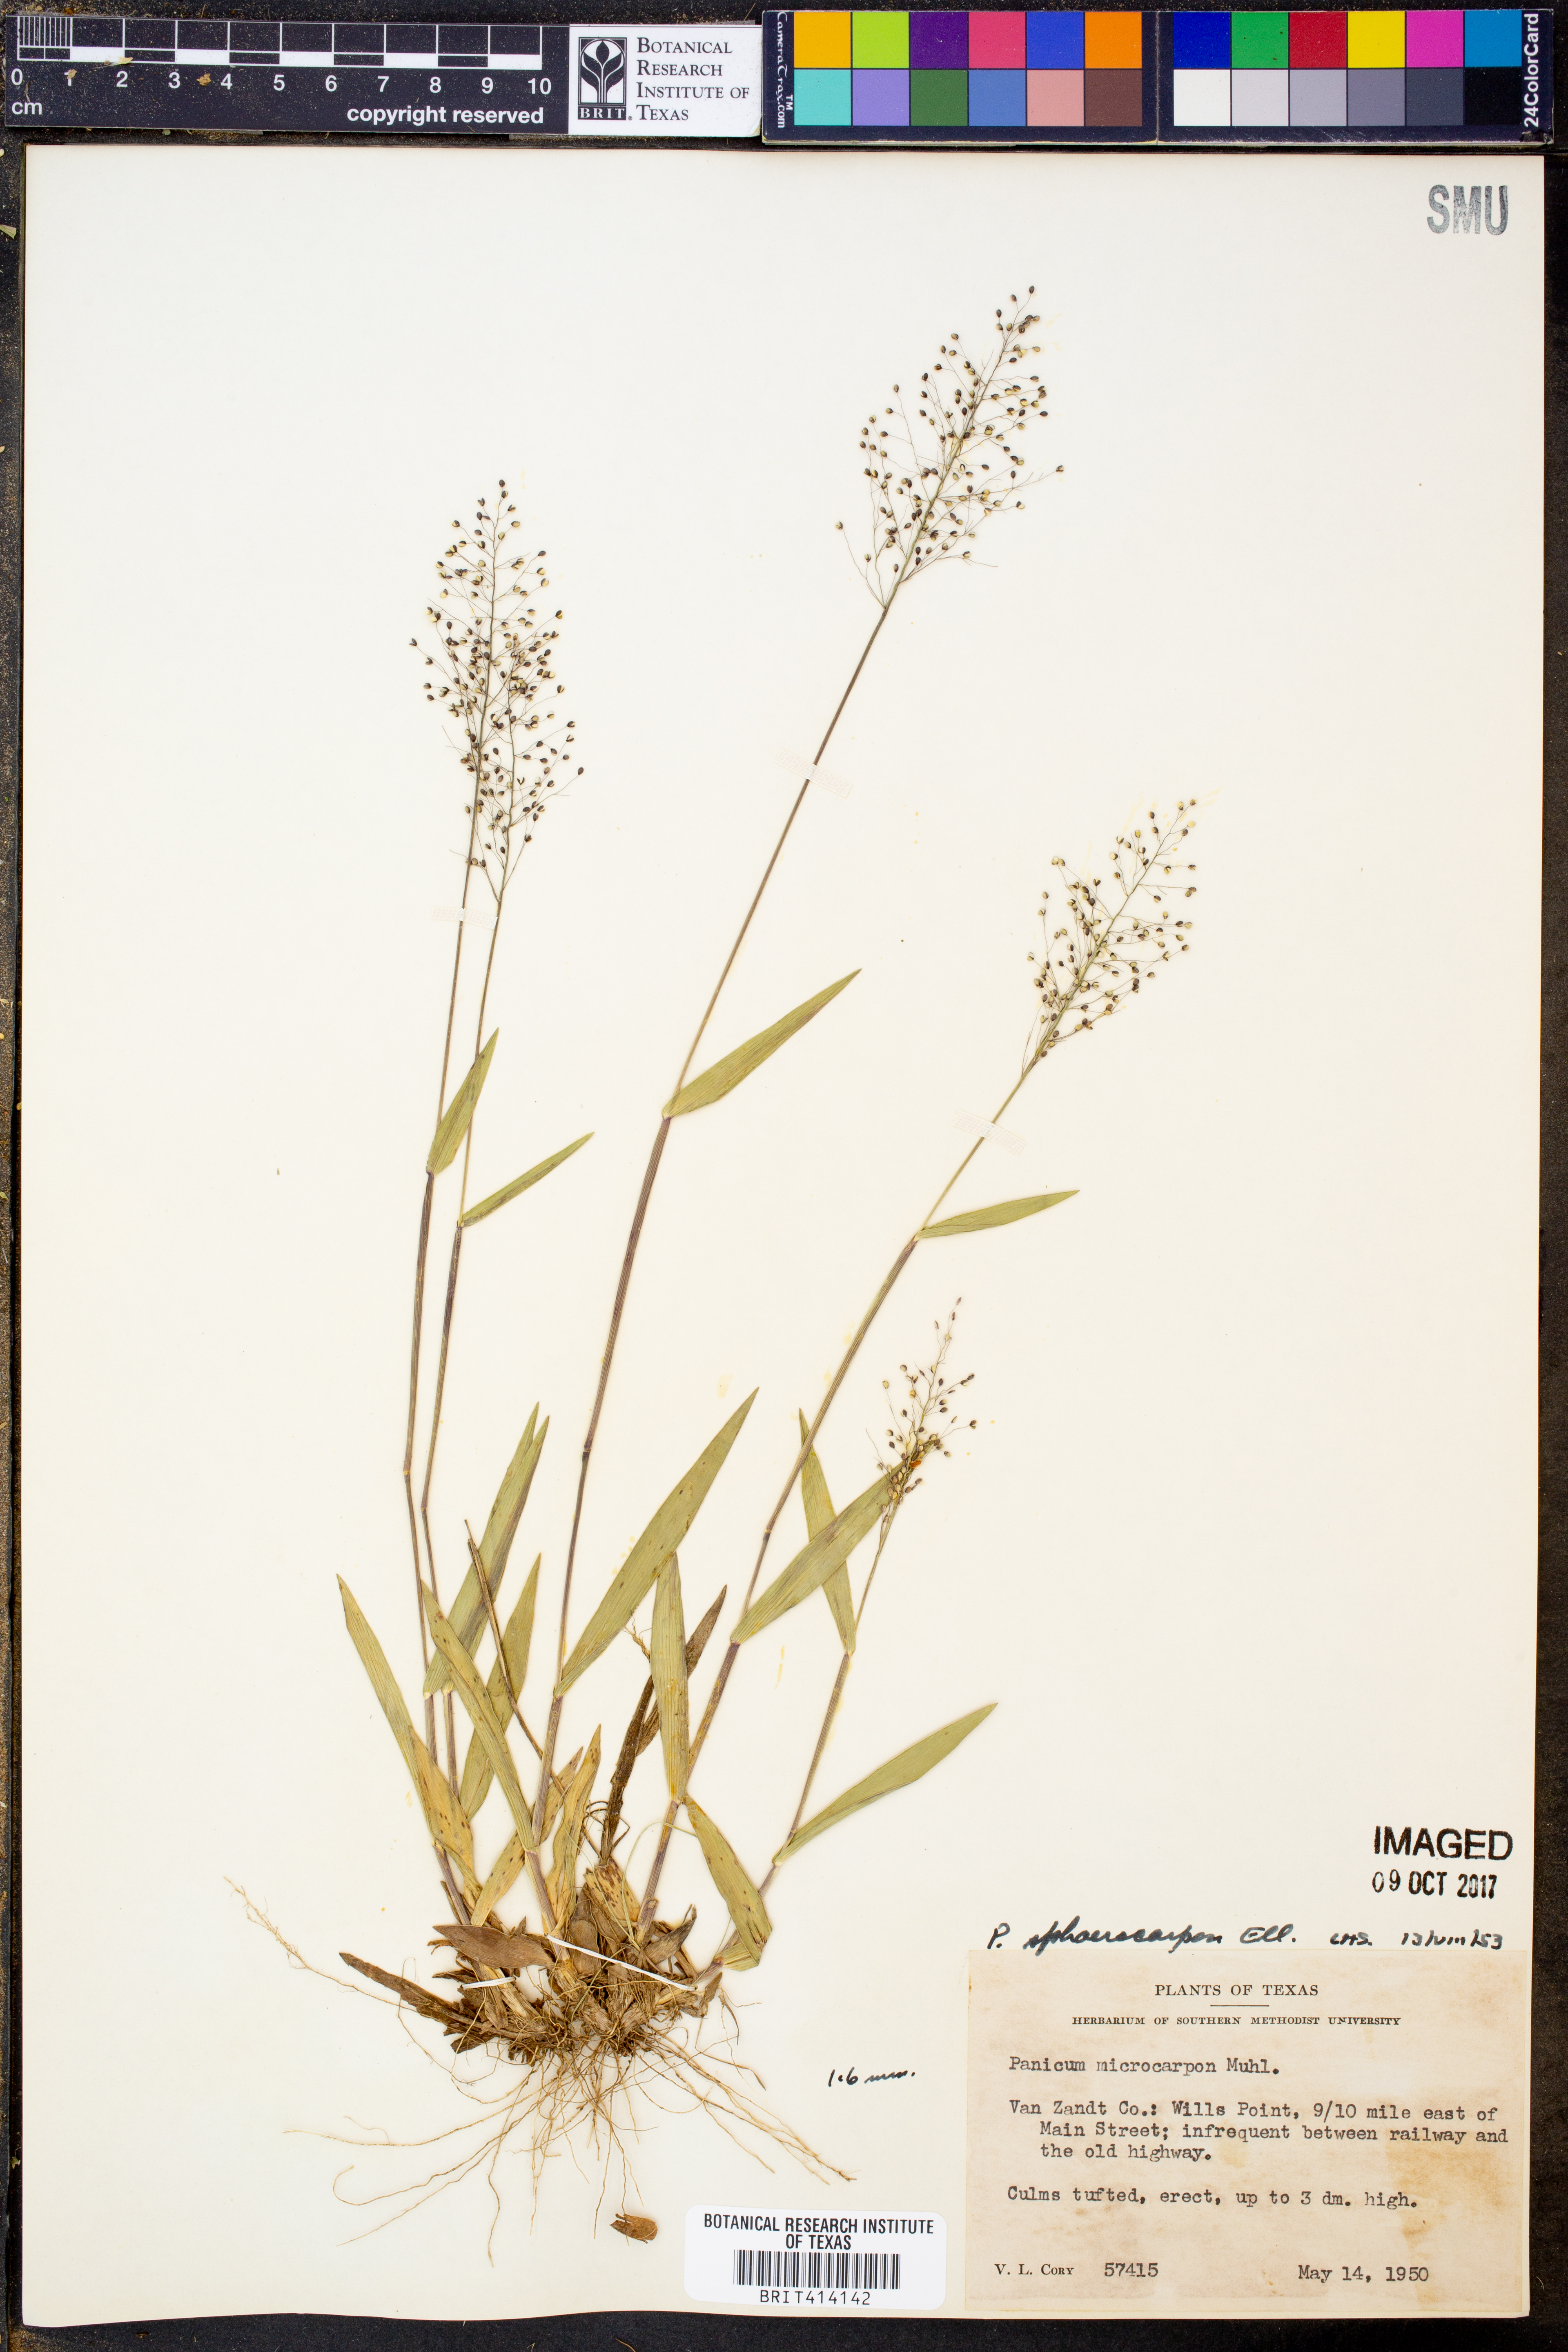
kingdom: Plantae
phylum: Tracheophyta
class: Liliopsida
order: Poales
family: Poaceae
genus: Dichanthelium
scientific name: Dichanthelium sphaerocarpon
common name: Round-fruited panicgrass
